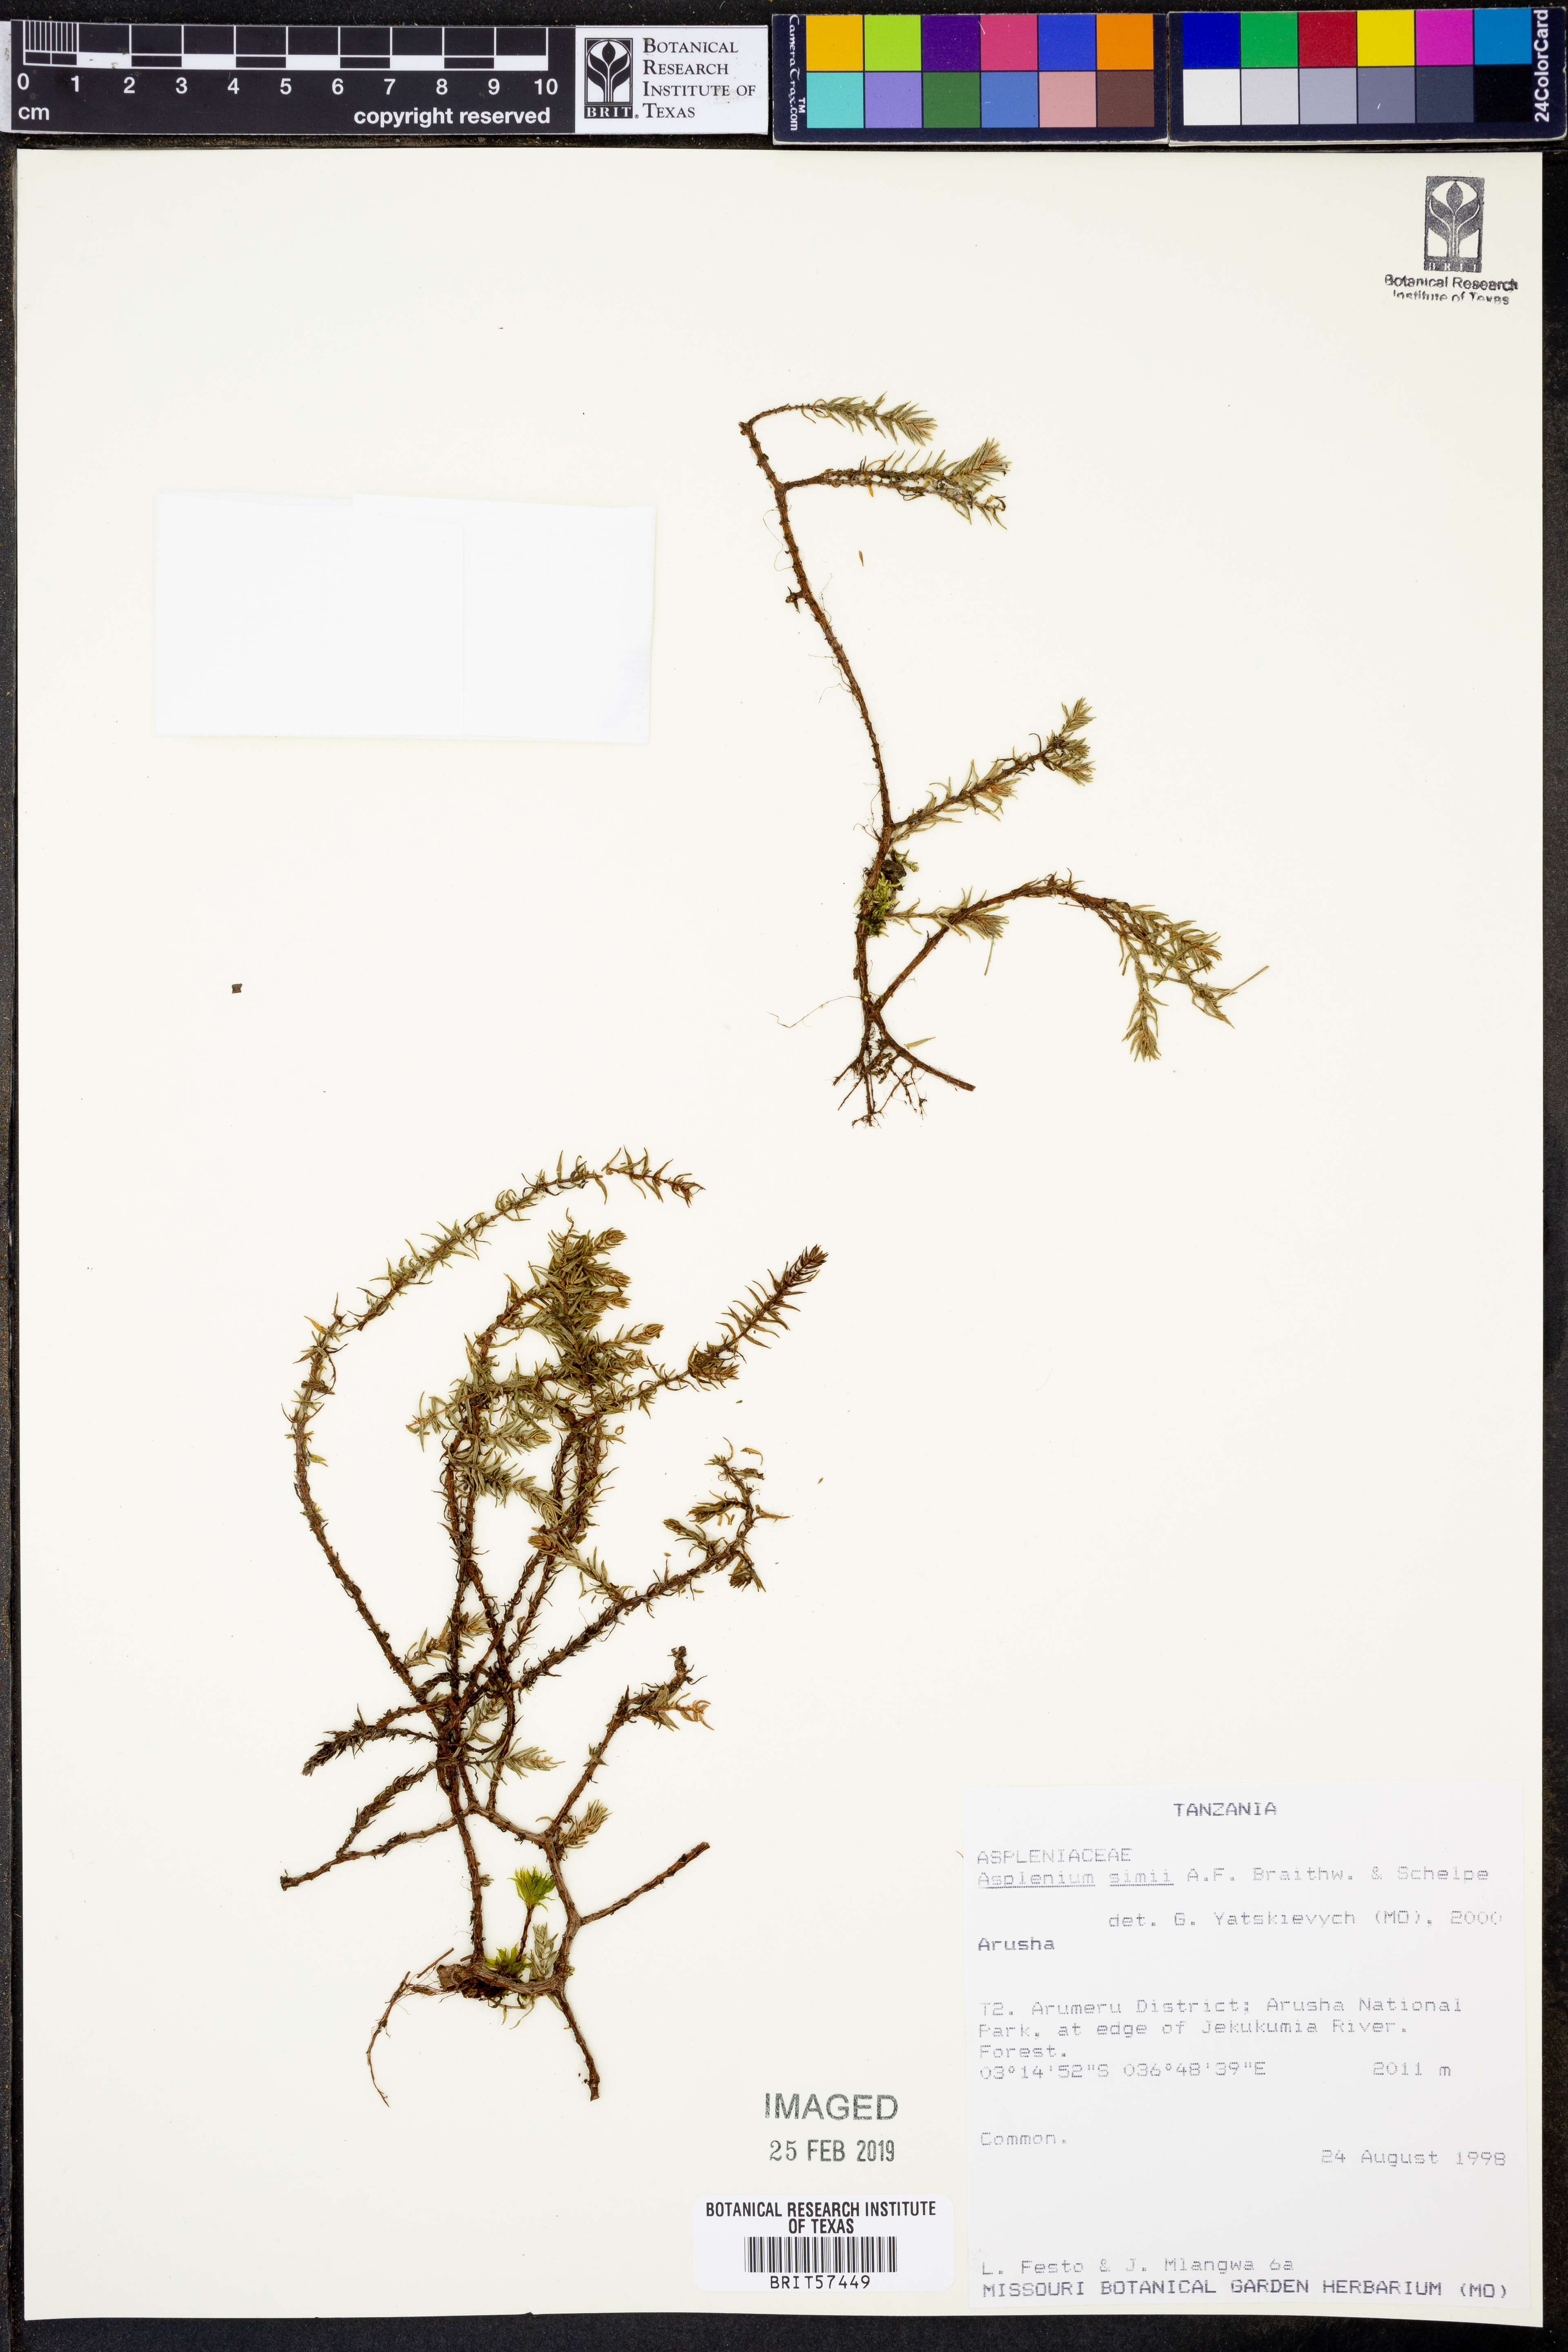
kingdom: Plantae
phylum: Tracheophyta
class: Polypodiopsida
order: Polypodiales
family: Aspleniaceae
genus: Asplenium
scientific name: Asplenium simii
